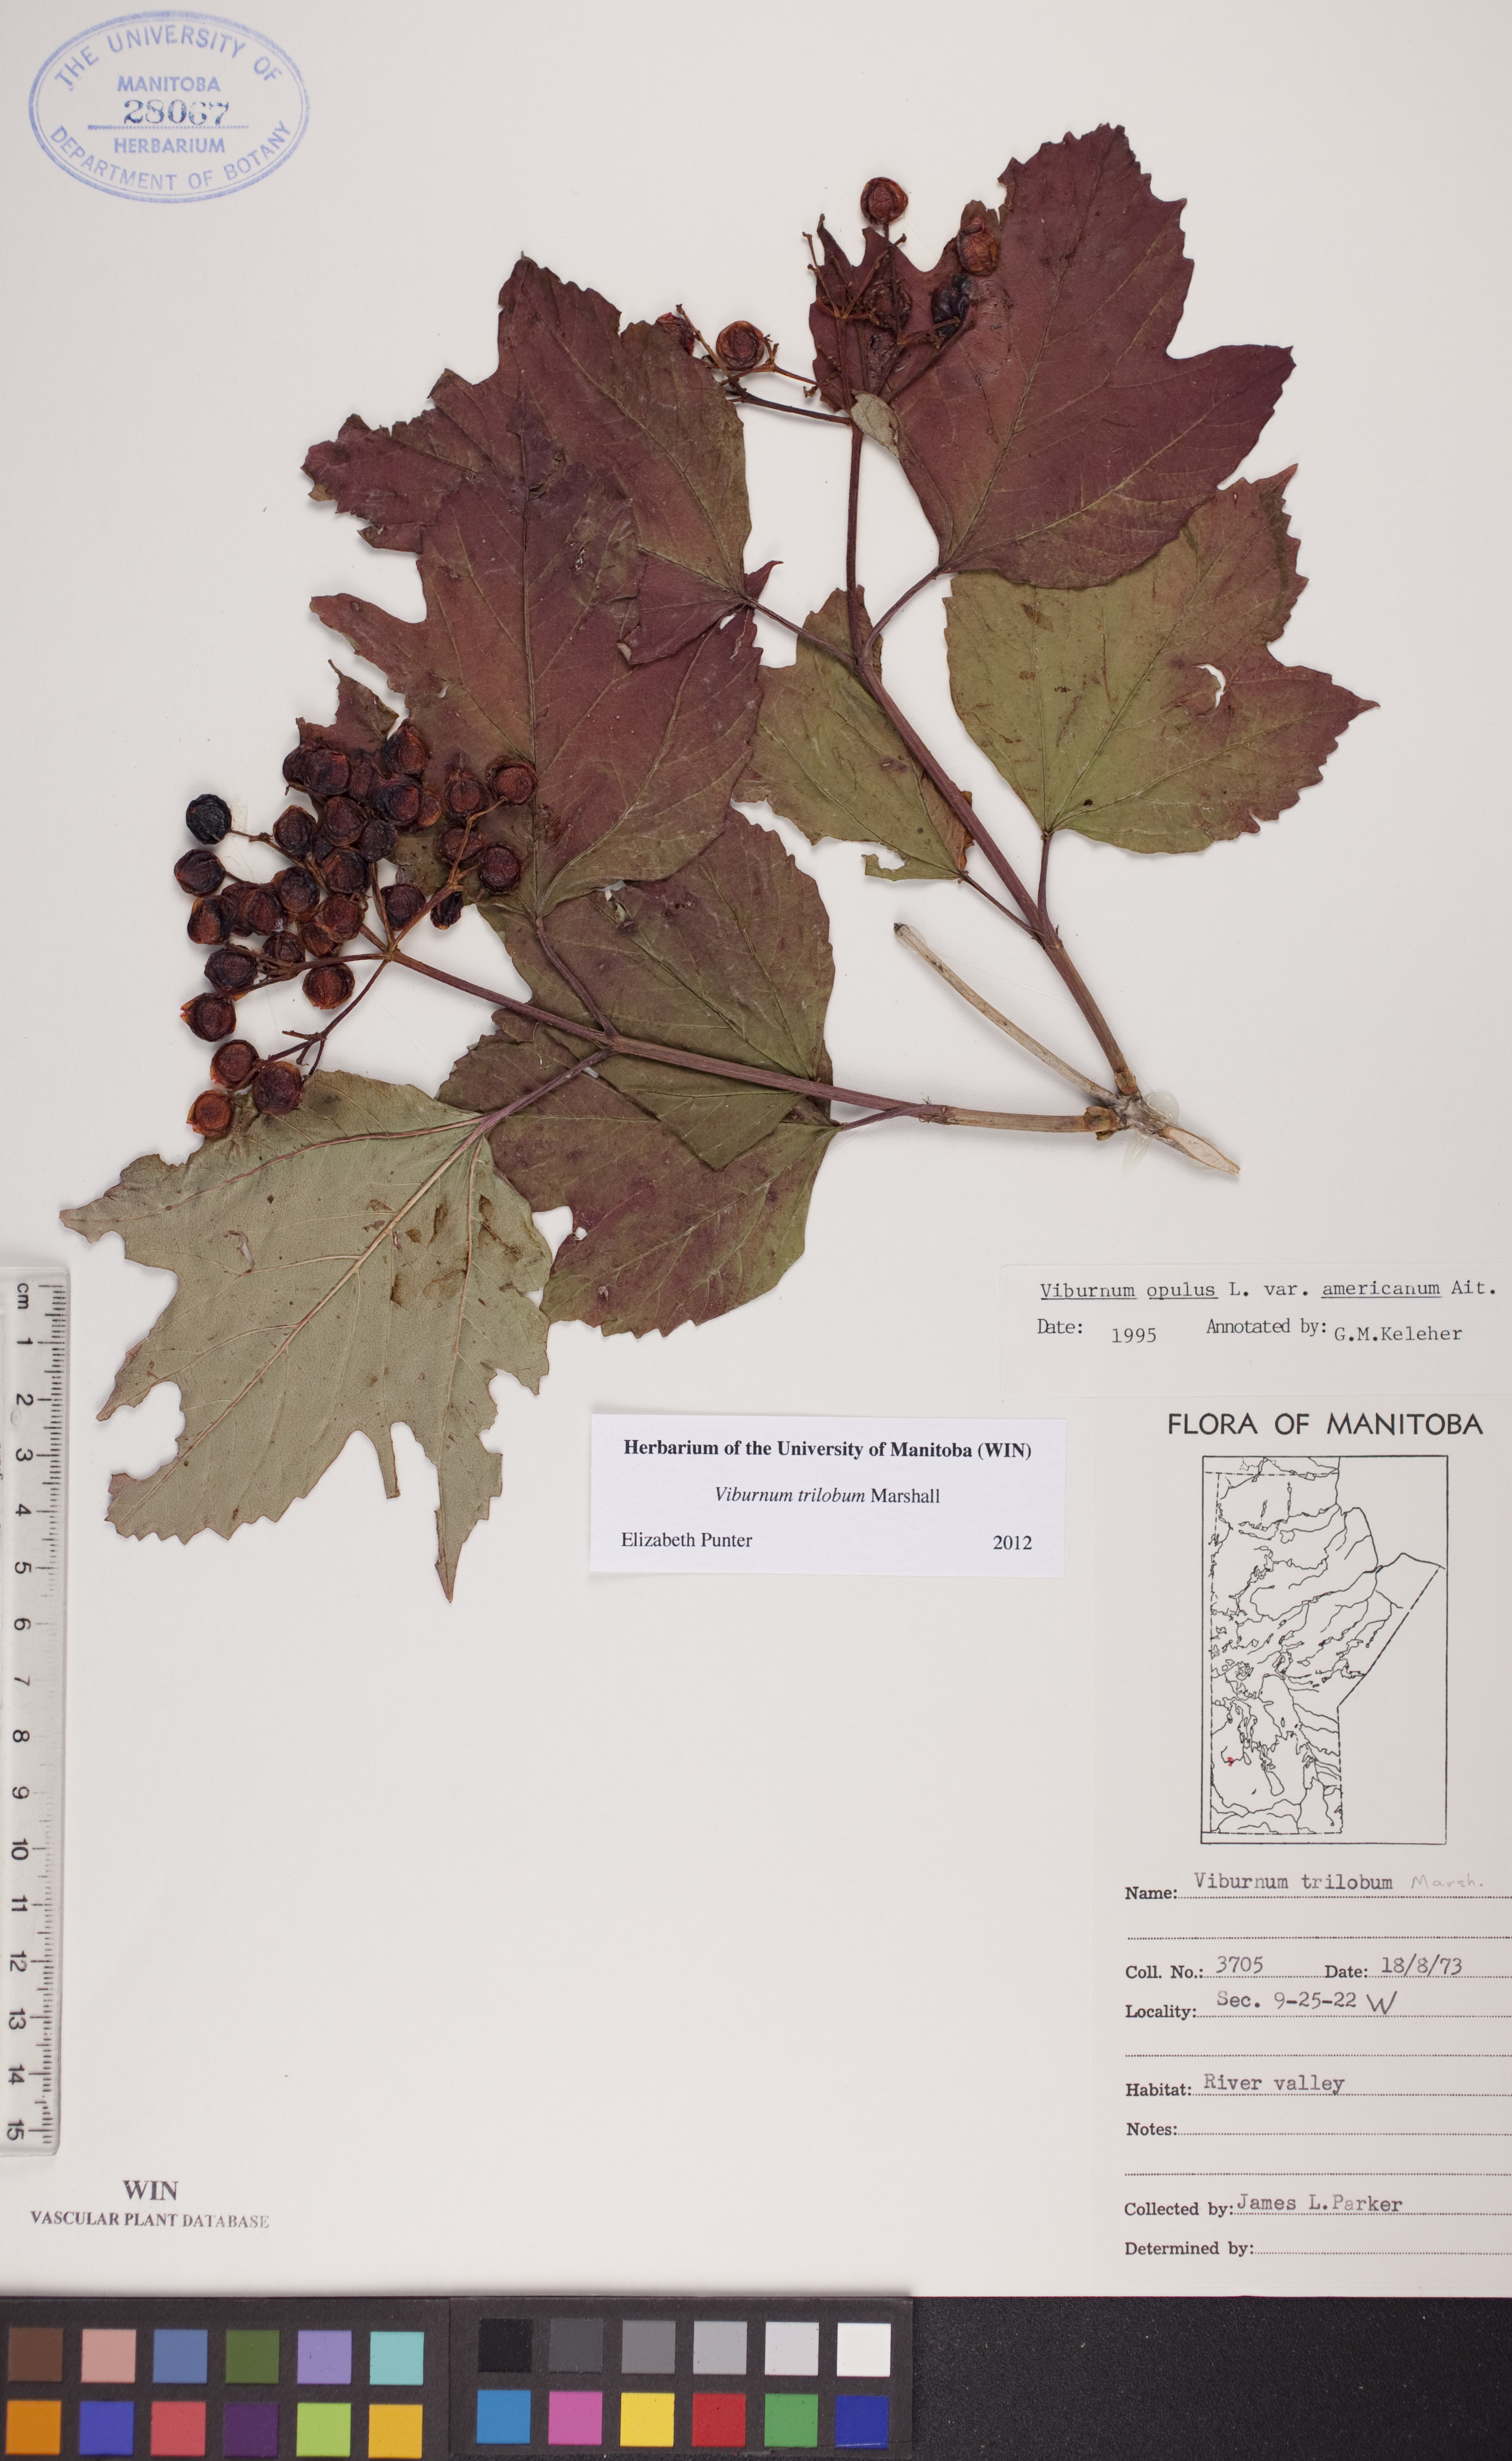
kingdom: Plantae
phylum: Tracheophyta
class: Magnoliopsida
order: Dipsacales
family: Viburnaceae
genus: Viburnum
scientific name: Viburnum trilobum
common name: American cranberrybush
